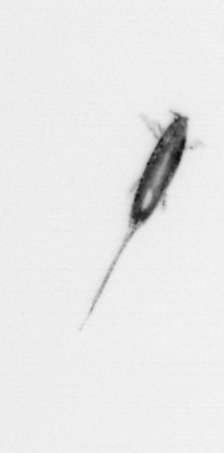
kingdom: Animalia
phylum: Arthropoda
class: Copepoda
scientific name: Copepoda
